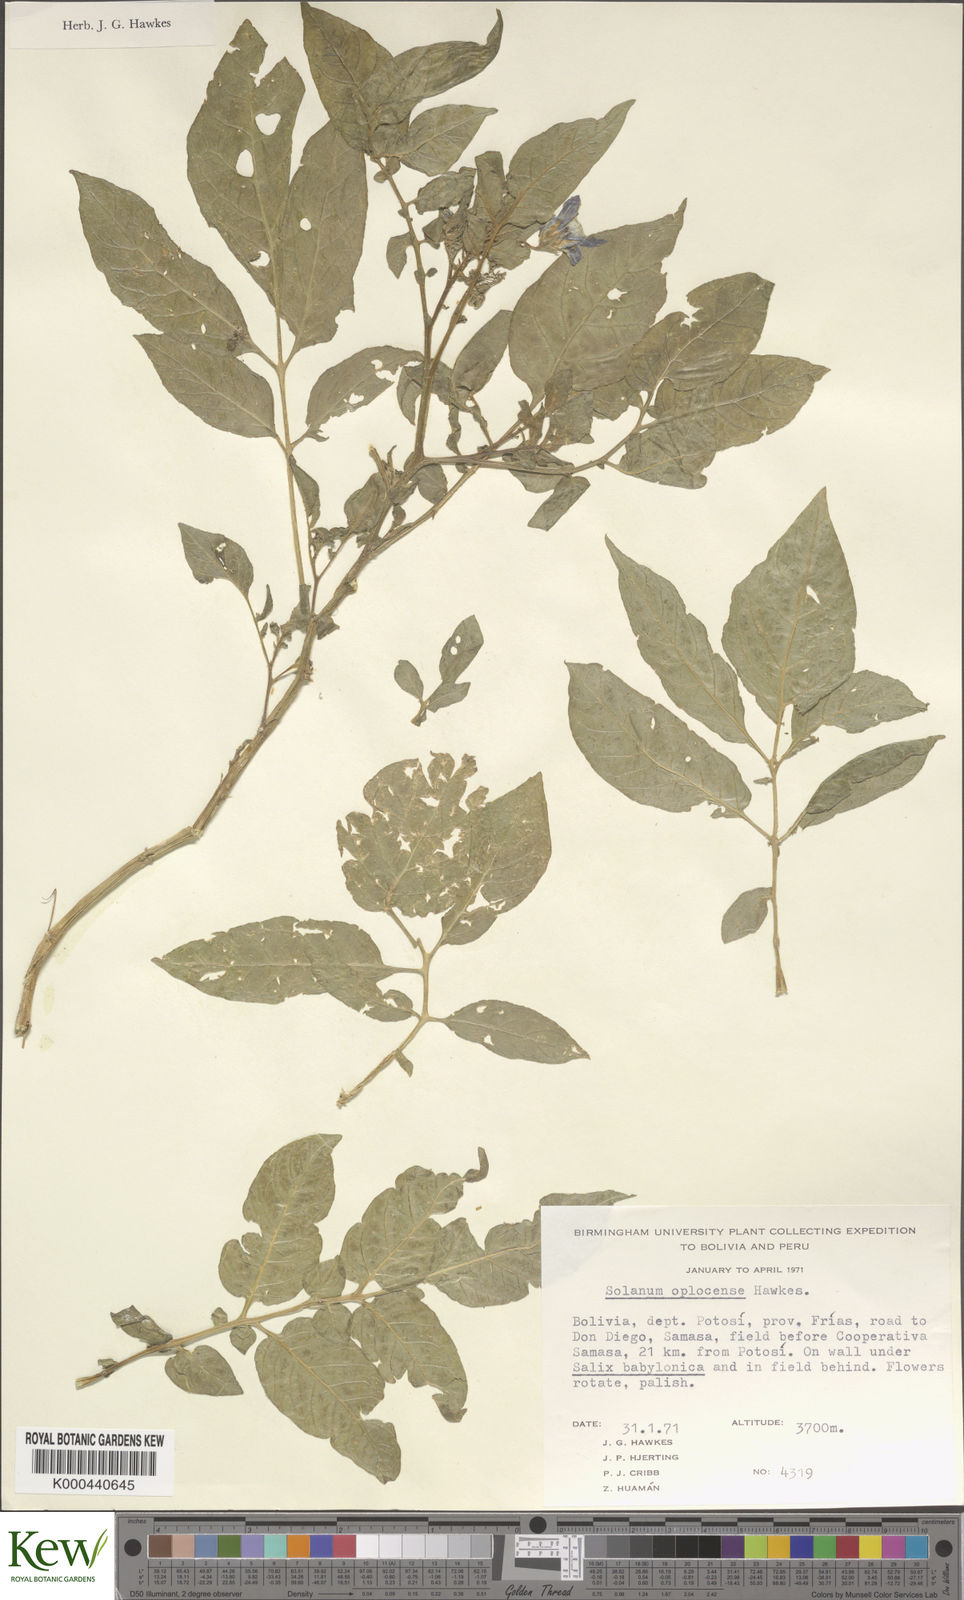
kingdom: Plantae
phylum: Tracheophyta
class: Magnoliopsida
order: Solanales
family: Solanaceae
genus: Solanum
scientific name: Solanum brevicaule
